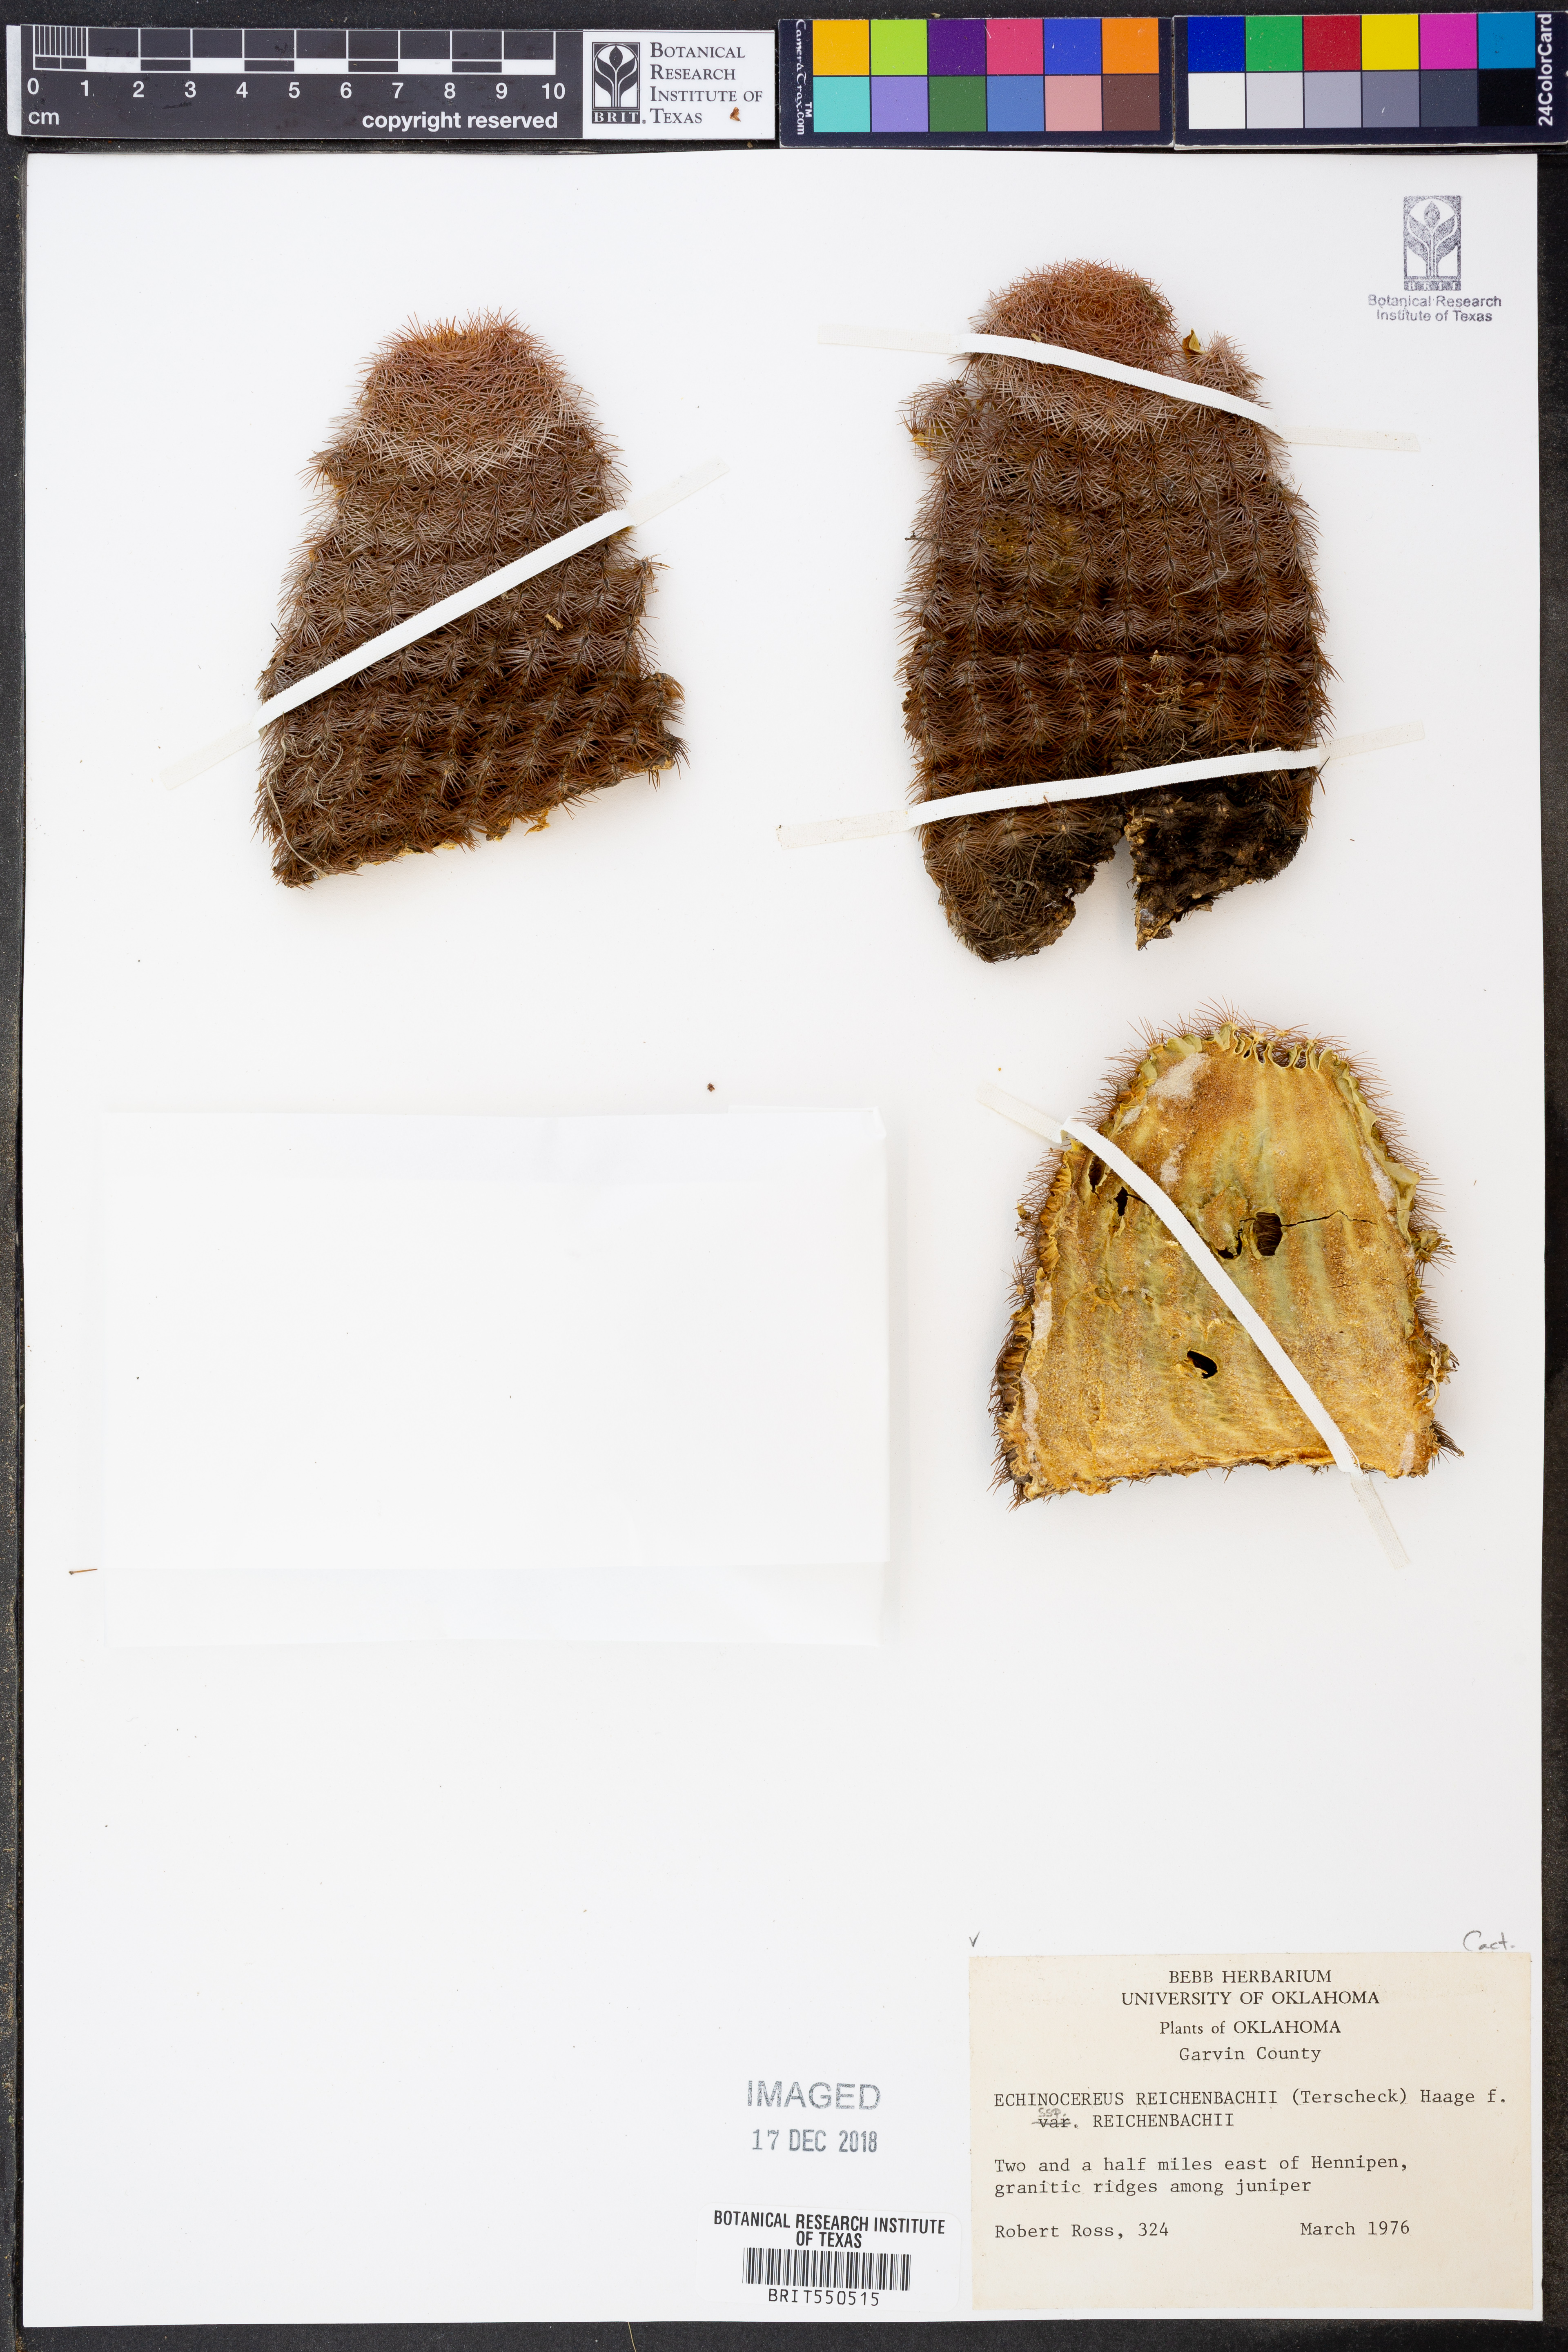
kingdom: Plantae
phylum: Tracheophyta
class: Magnoliopsida
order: Caryophyllales
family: Cactaceae
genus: Echinocereus
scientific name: Echinocereus reichenbachii
